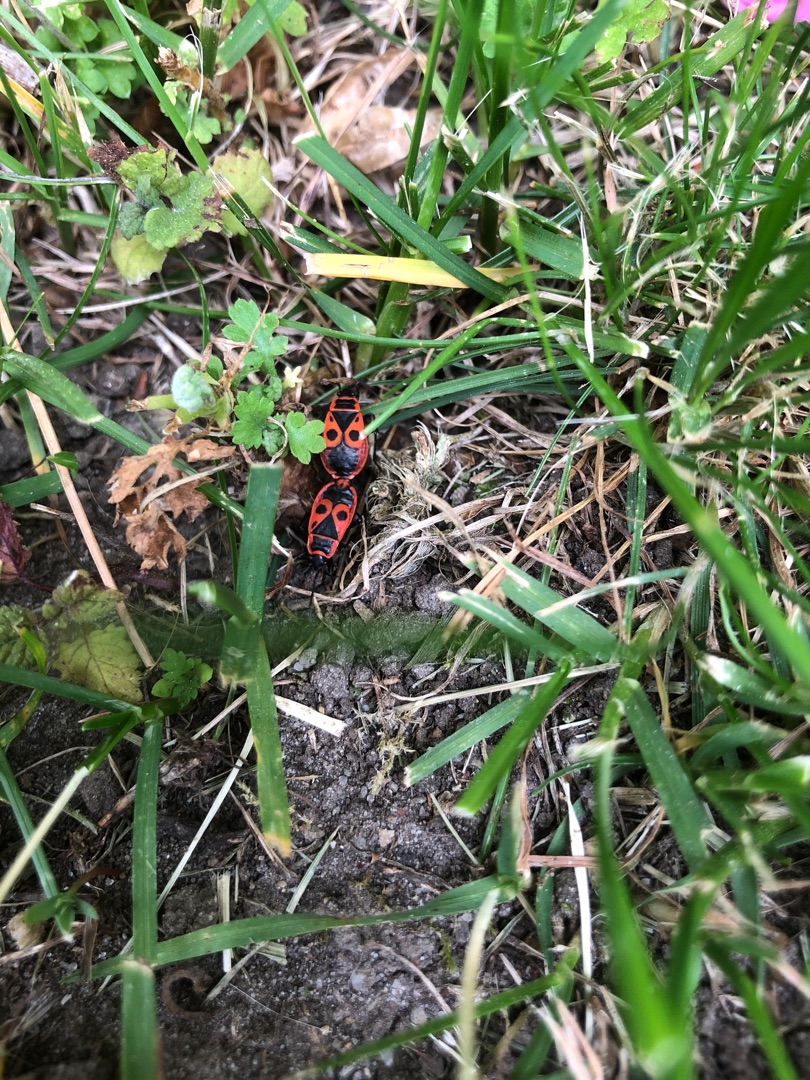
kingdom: Animalia
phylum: Arthropoda
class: Insecta
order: Hemiptera
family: Pyrrhocoridae
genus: Pyrrhocoris
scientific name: Pyrrhocoris apterus
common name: Ildtæge
